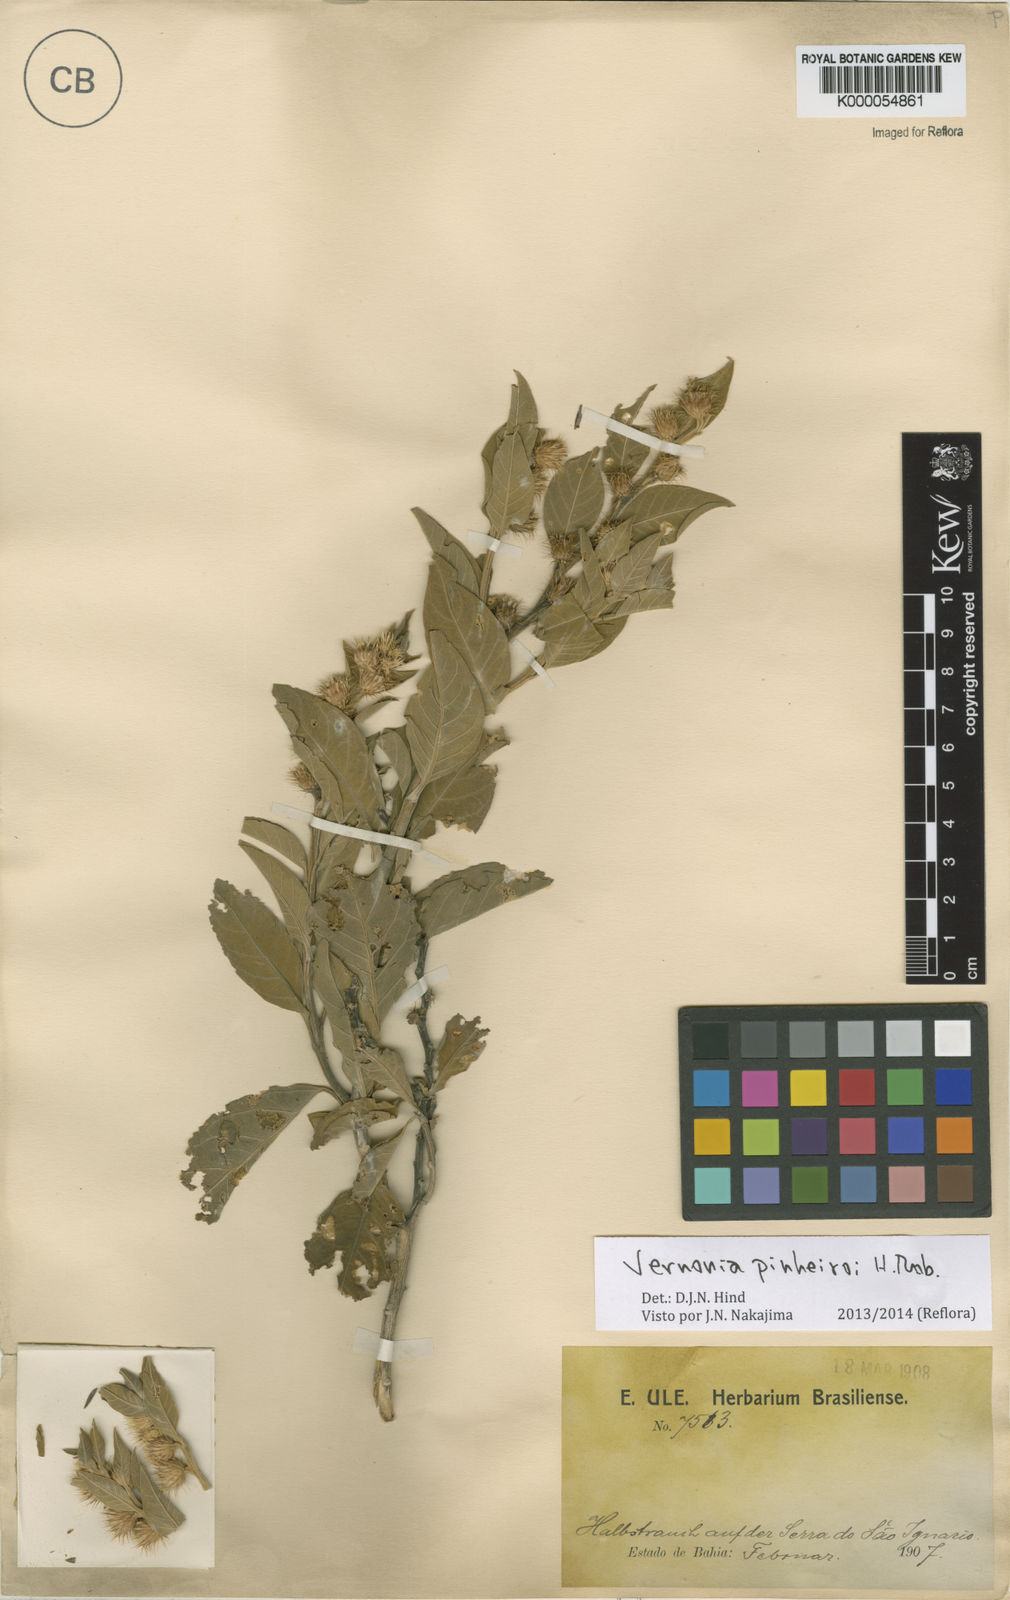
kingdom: Plantae
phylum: Tracheophyta
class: Magnoliopsida
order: Asterales
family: Asteraceae
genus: Lepidaploa
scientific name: Lepidaploa pinheiroi
